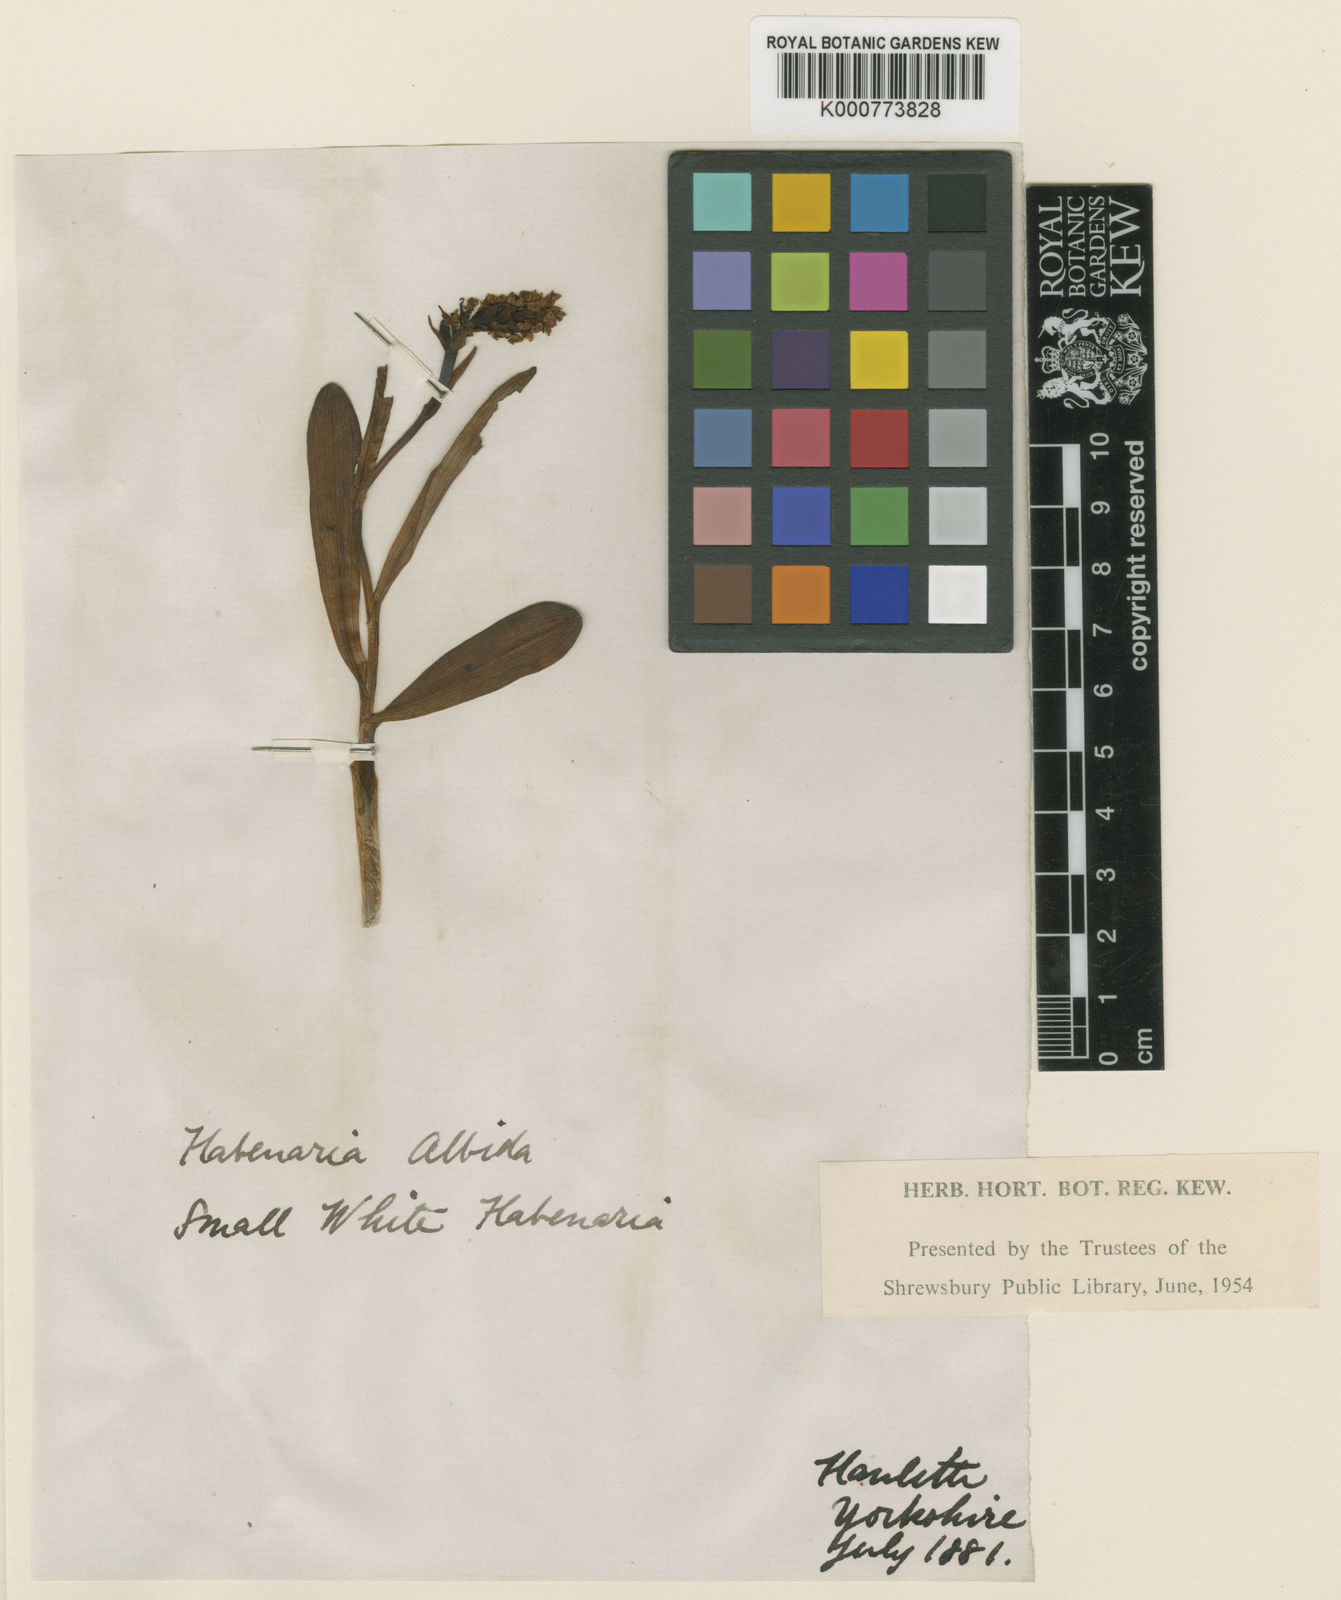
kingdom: Plantae
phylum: Tracheophyta
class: Liliopsida
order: Asparagales
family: Orchidaceae
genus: Pseudorchis
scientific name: Pseudorchis
